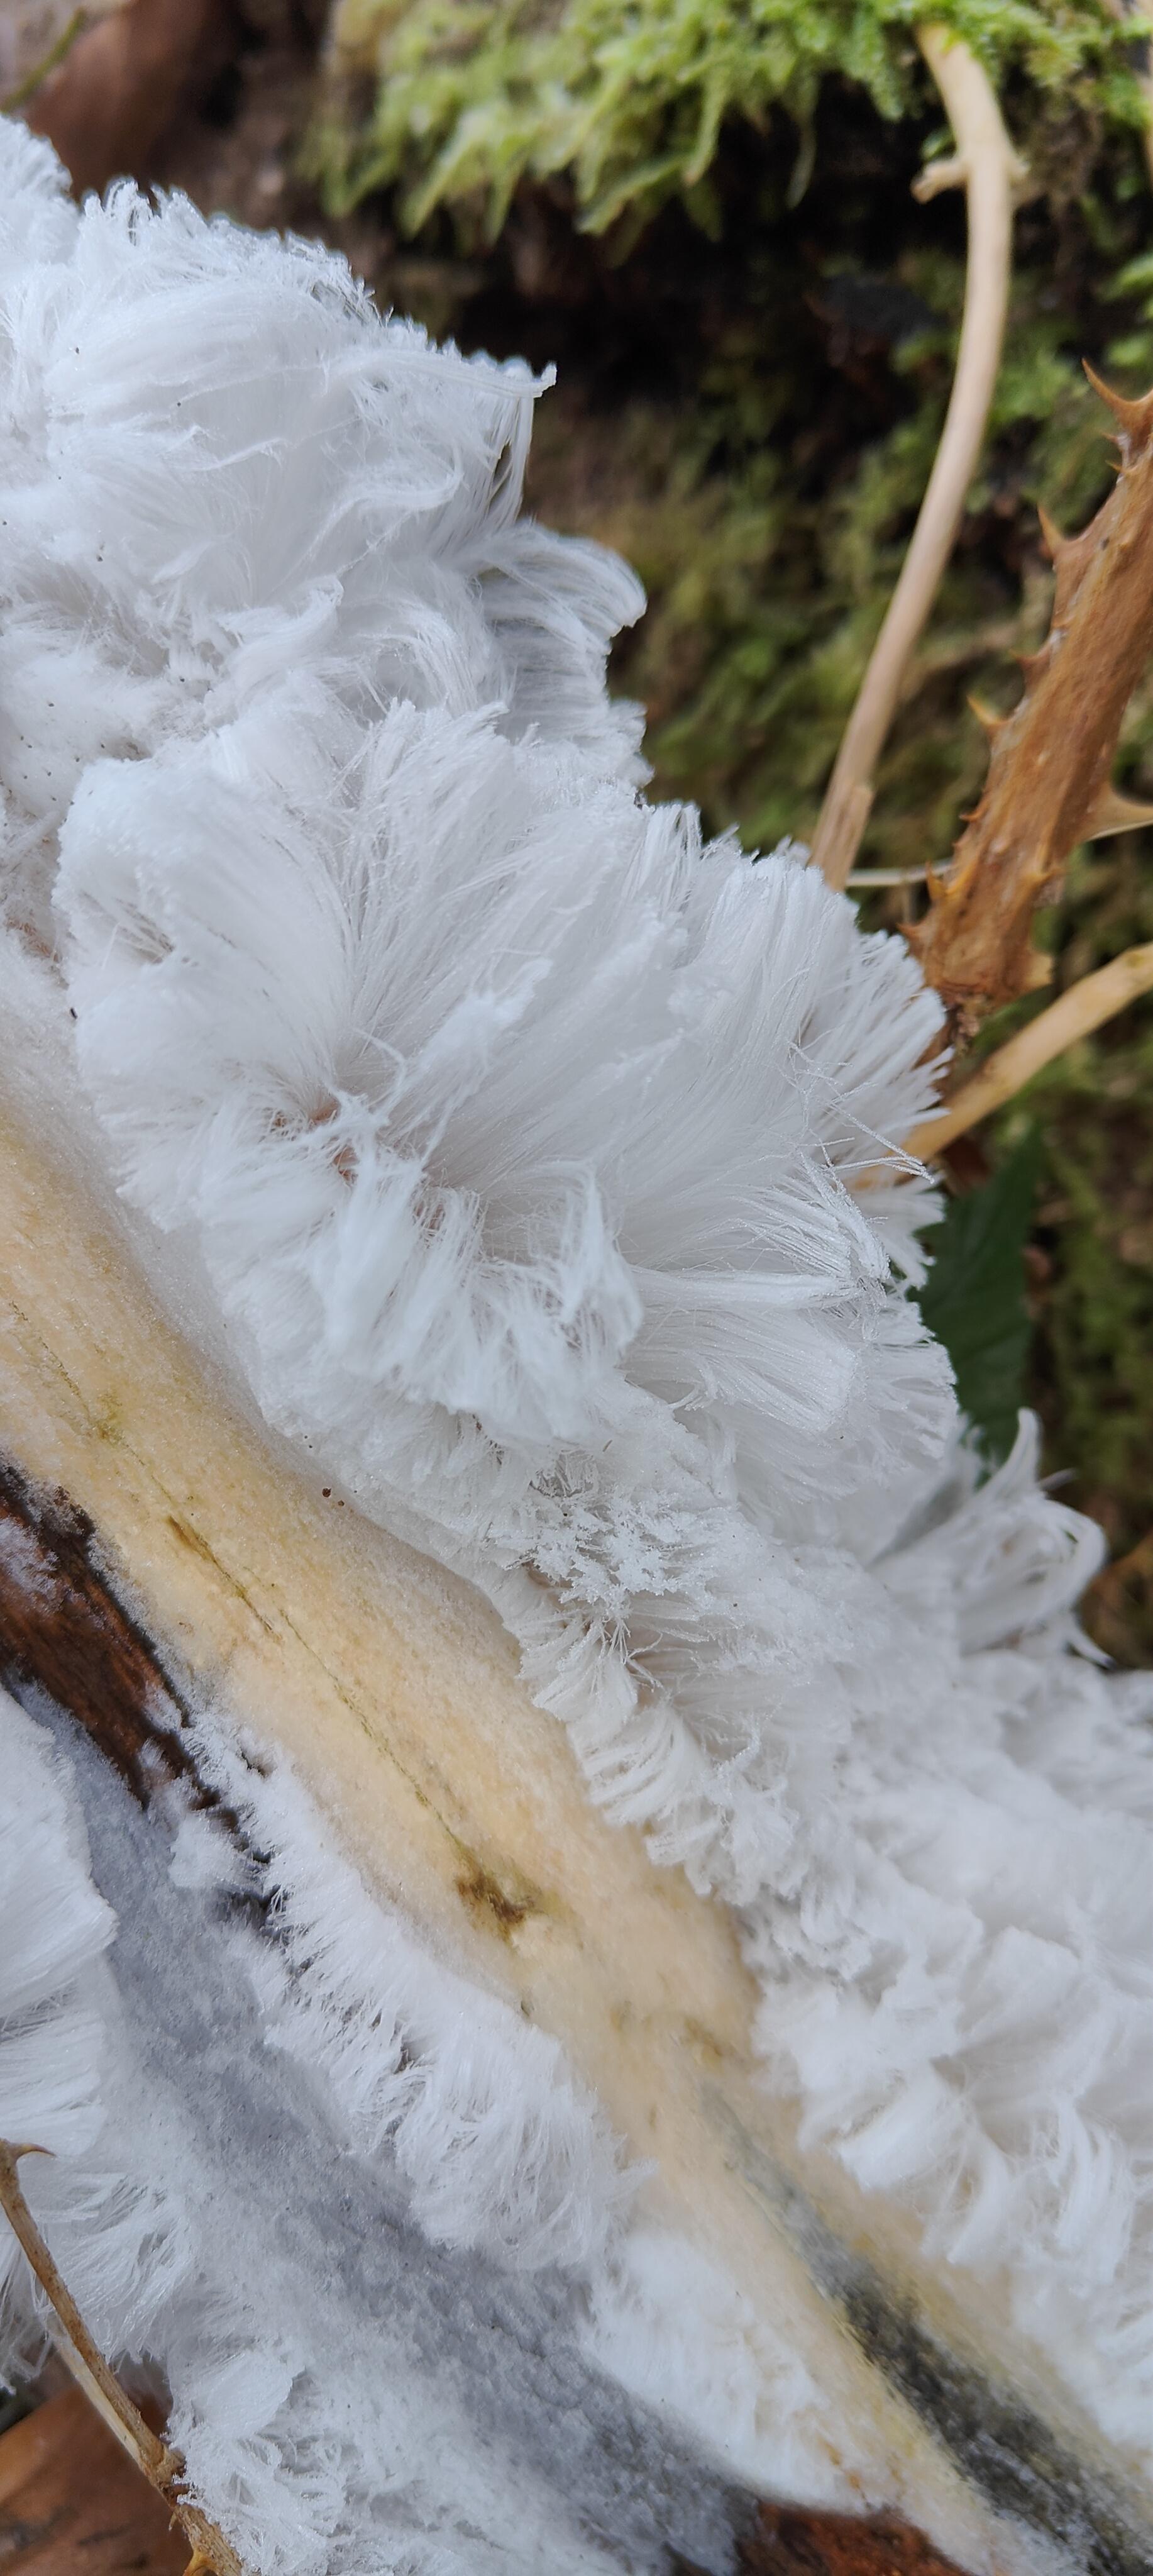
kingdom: Fungi
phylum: Basidiomycota
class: Tremellomycetes
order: Tremellales
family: Exidiaceae
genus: Exidiopsis
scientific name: Exidiopsis effusa
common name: smuk bævrehinde
